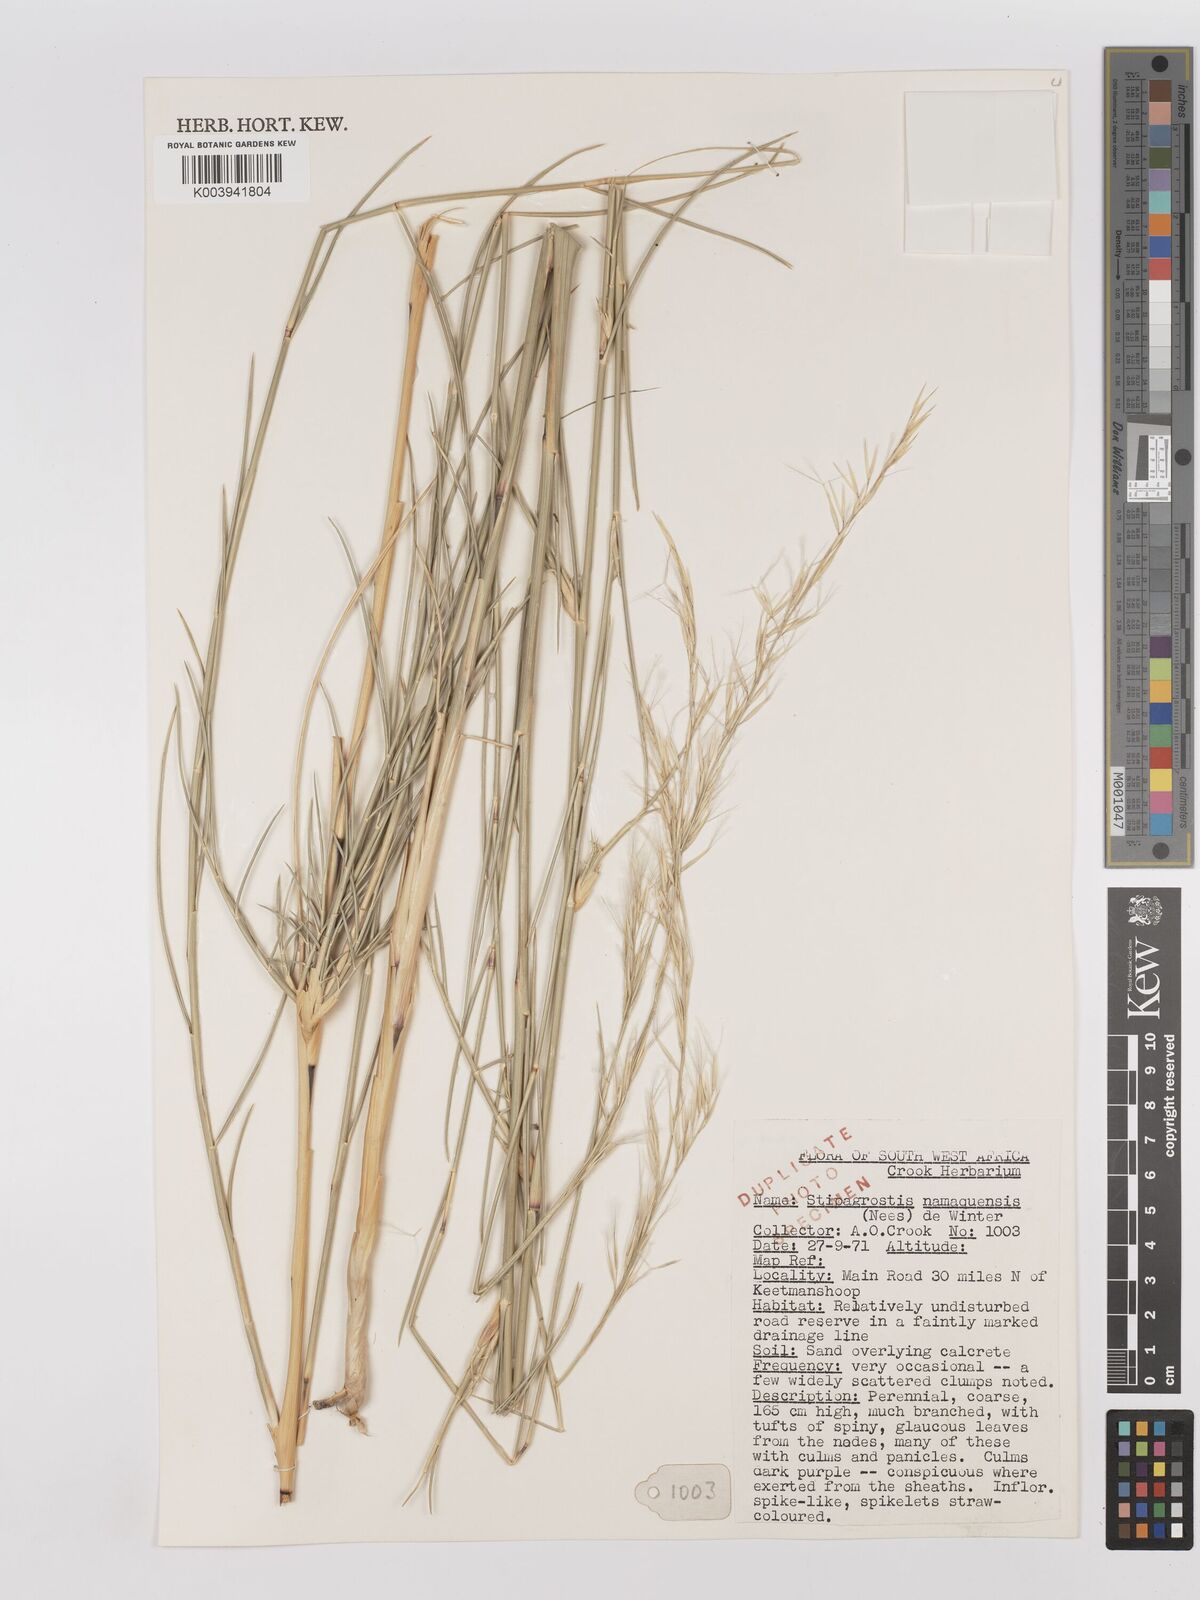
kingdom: Plantae
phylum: Tracheophyta
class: Liliopsida
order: Poales
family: Poaceae
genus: Stipagrostis
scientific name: Stipagrostis namaquensis
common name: River bushman grass
